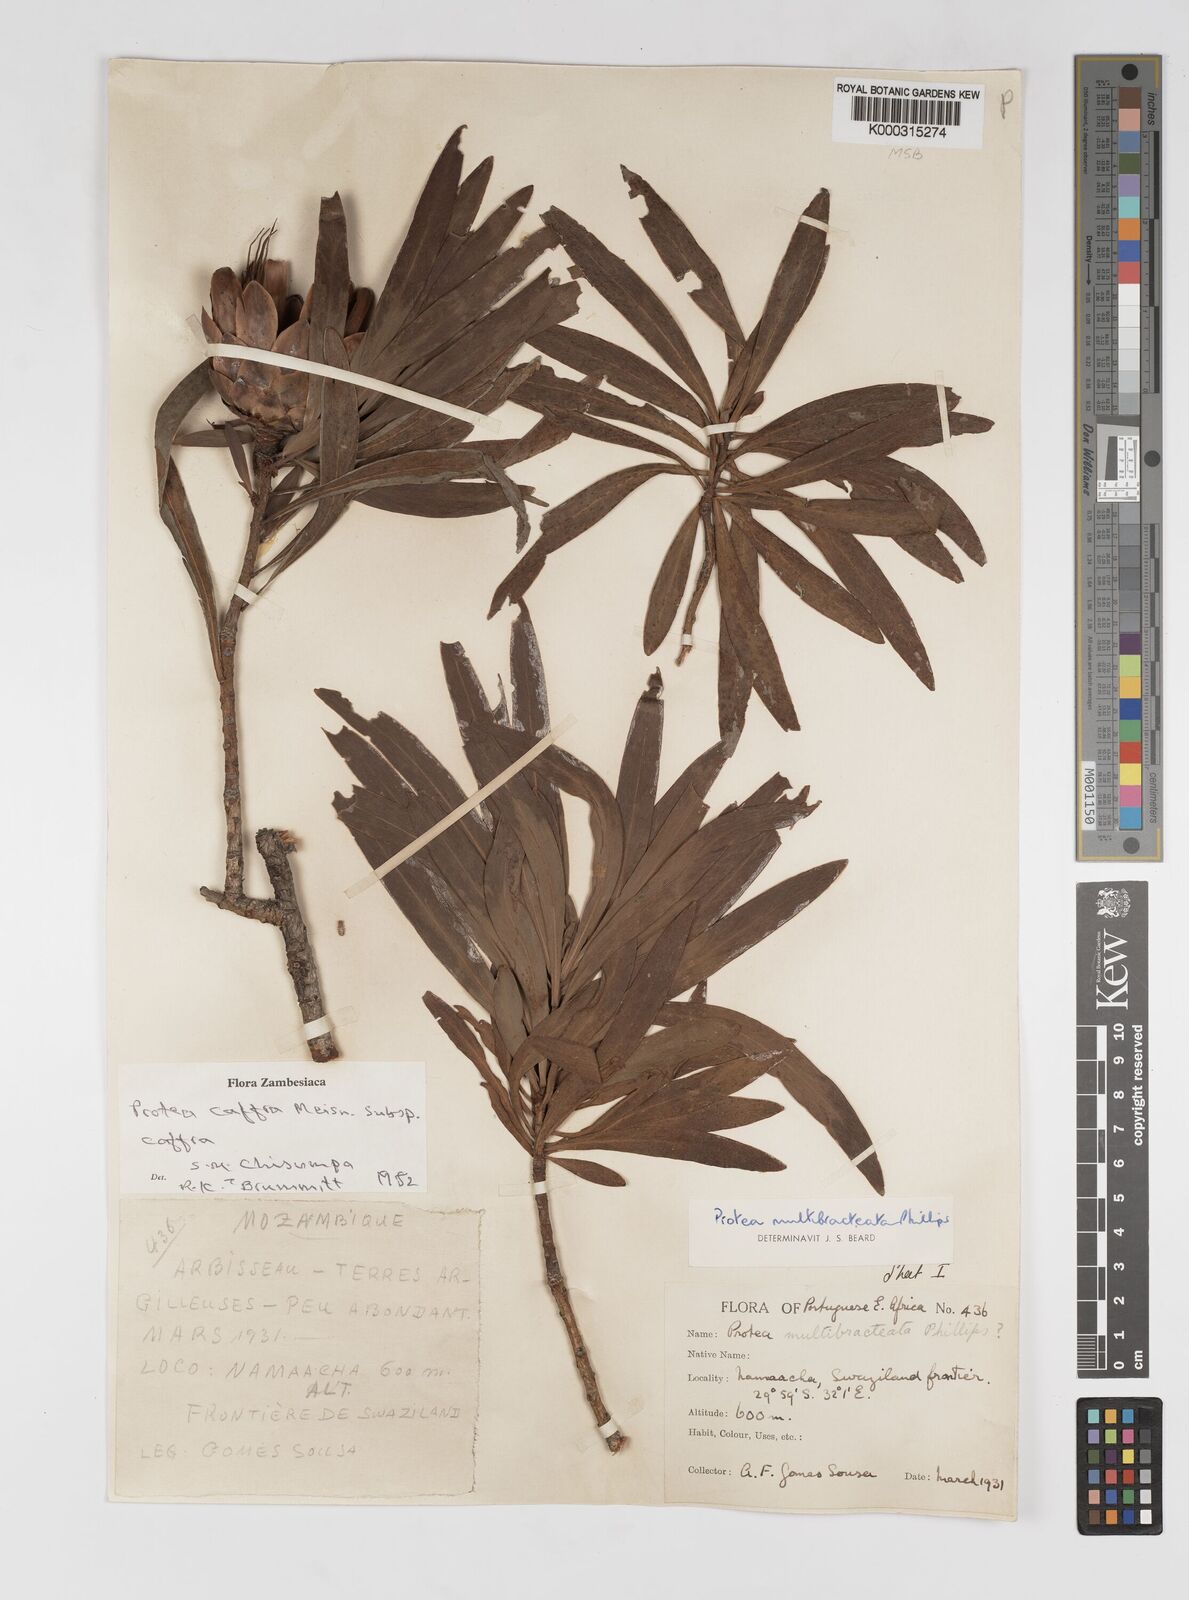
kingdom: Plantae
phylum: Tracheophyta
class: Magnoliopsida
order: Proteales
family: Proteaceae
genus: Protea
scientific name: Protea caffra
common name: Common sugarbush
